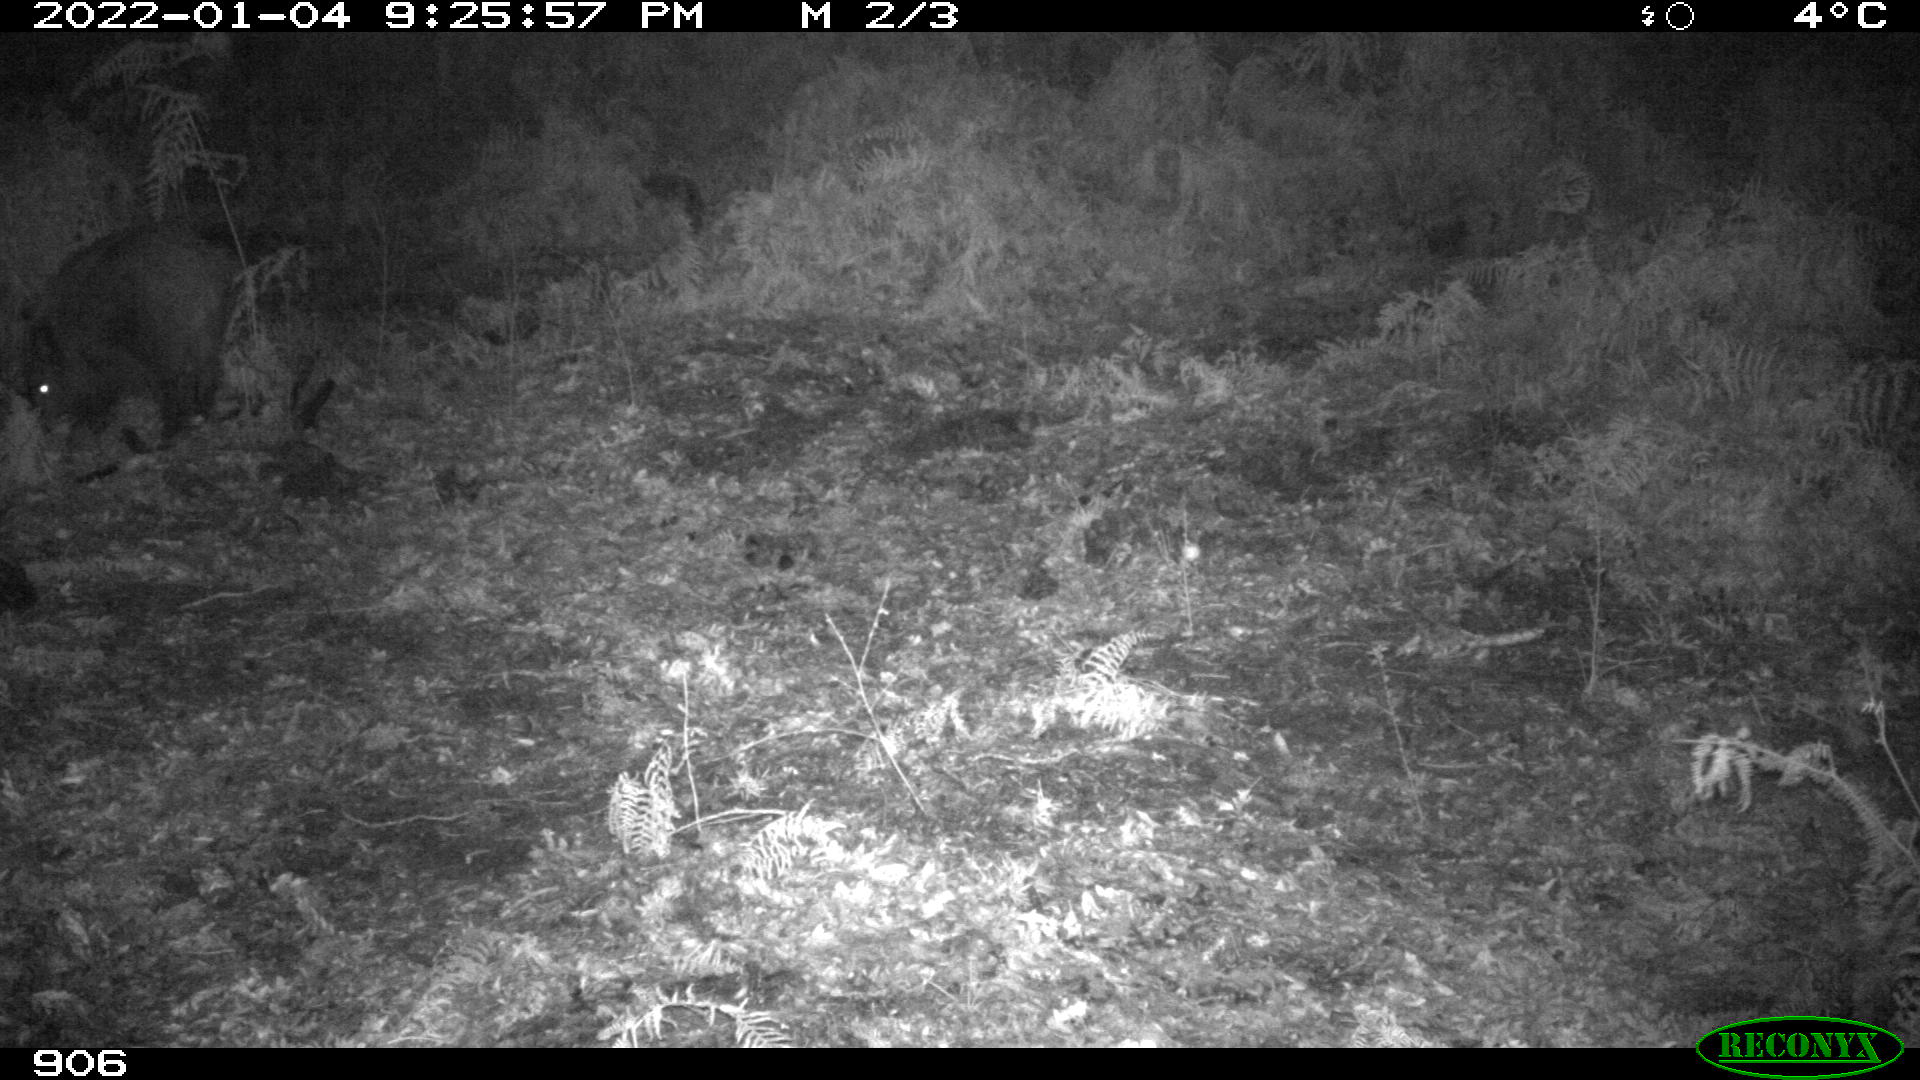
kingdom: Animalia
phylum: Chordata
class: Mammalia
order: Artiodactyla
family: Suidae
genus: Sus
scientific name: Sus scrofa
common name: Wild boar
